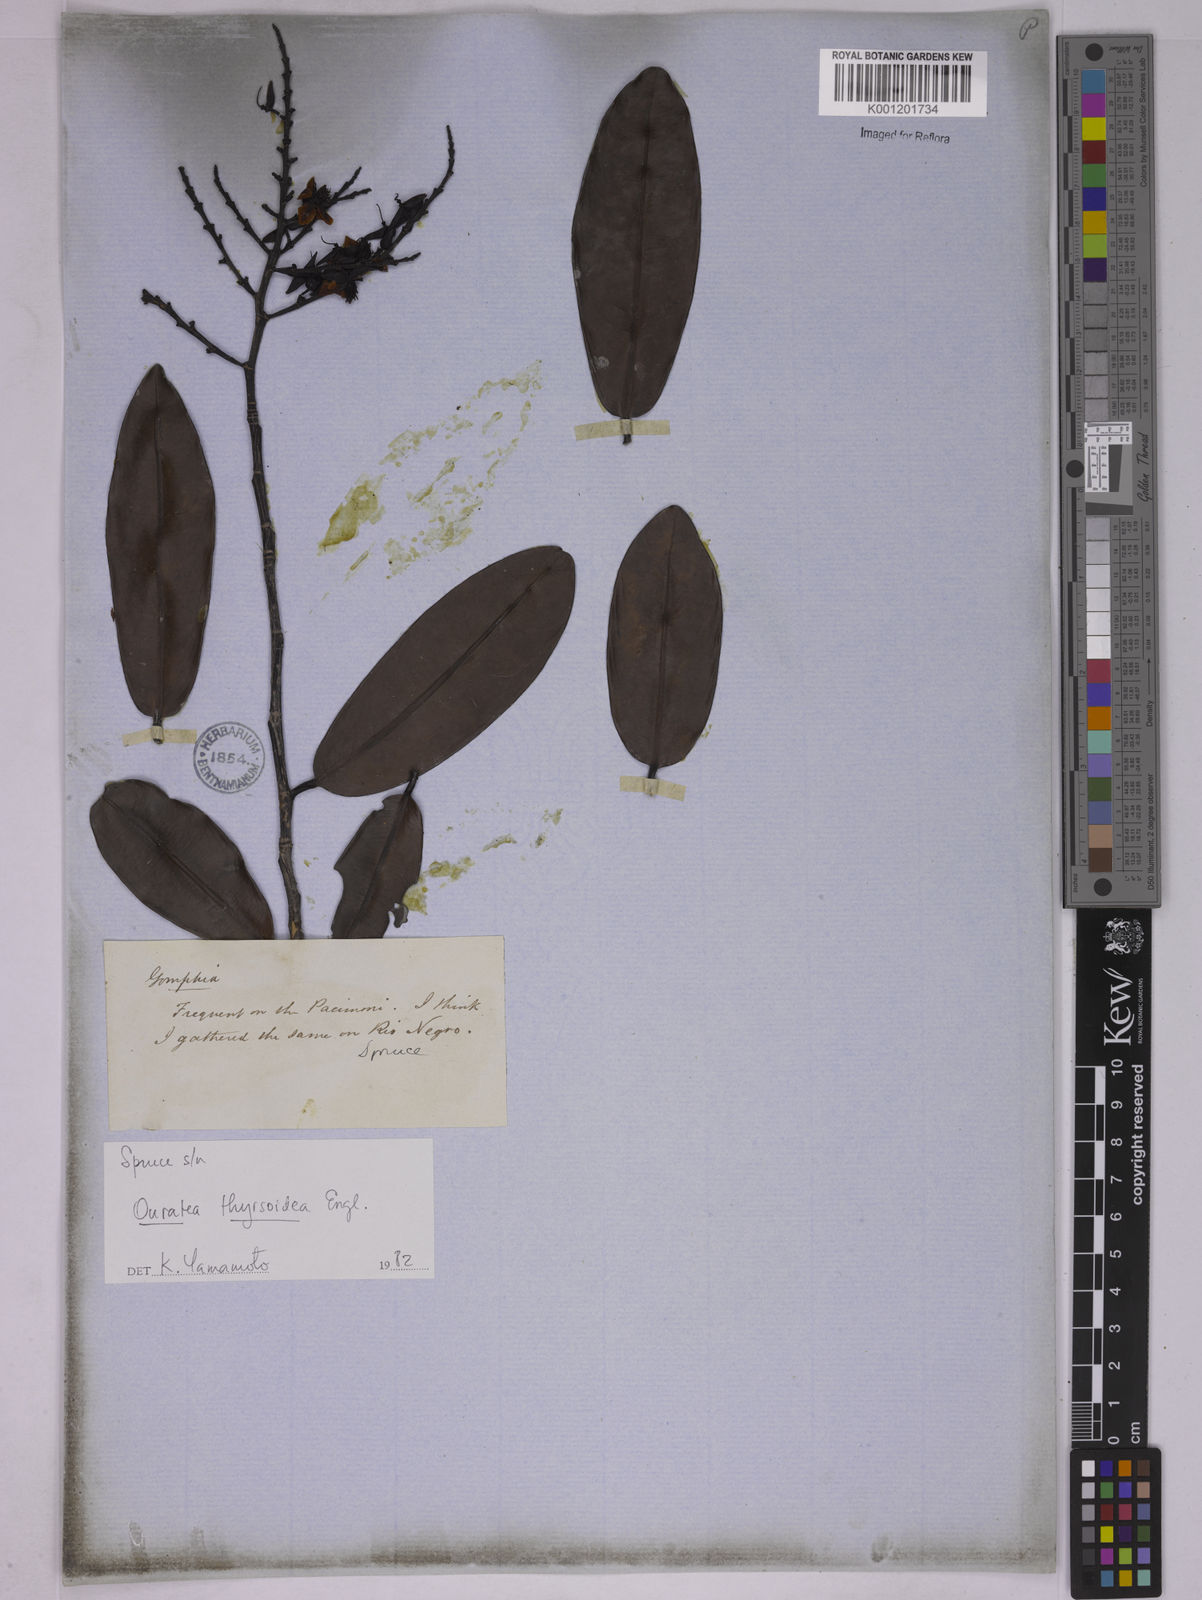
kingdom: Plantae
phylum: Tracheophyta
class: Magnoliopsida
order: Malpighiales
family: Ochnaceae
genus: Ouratea
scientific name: Ouratea thyrsoidea
